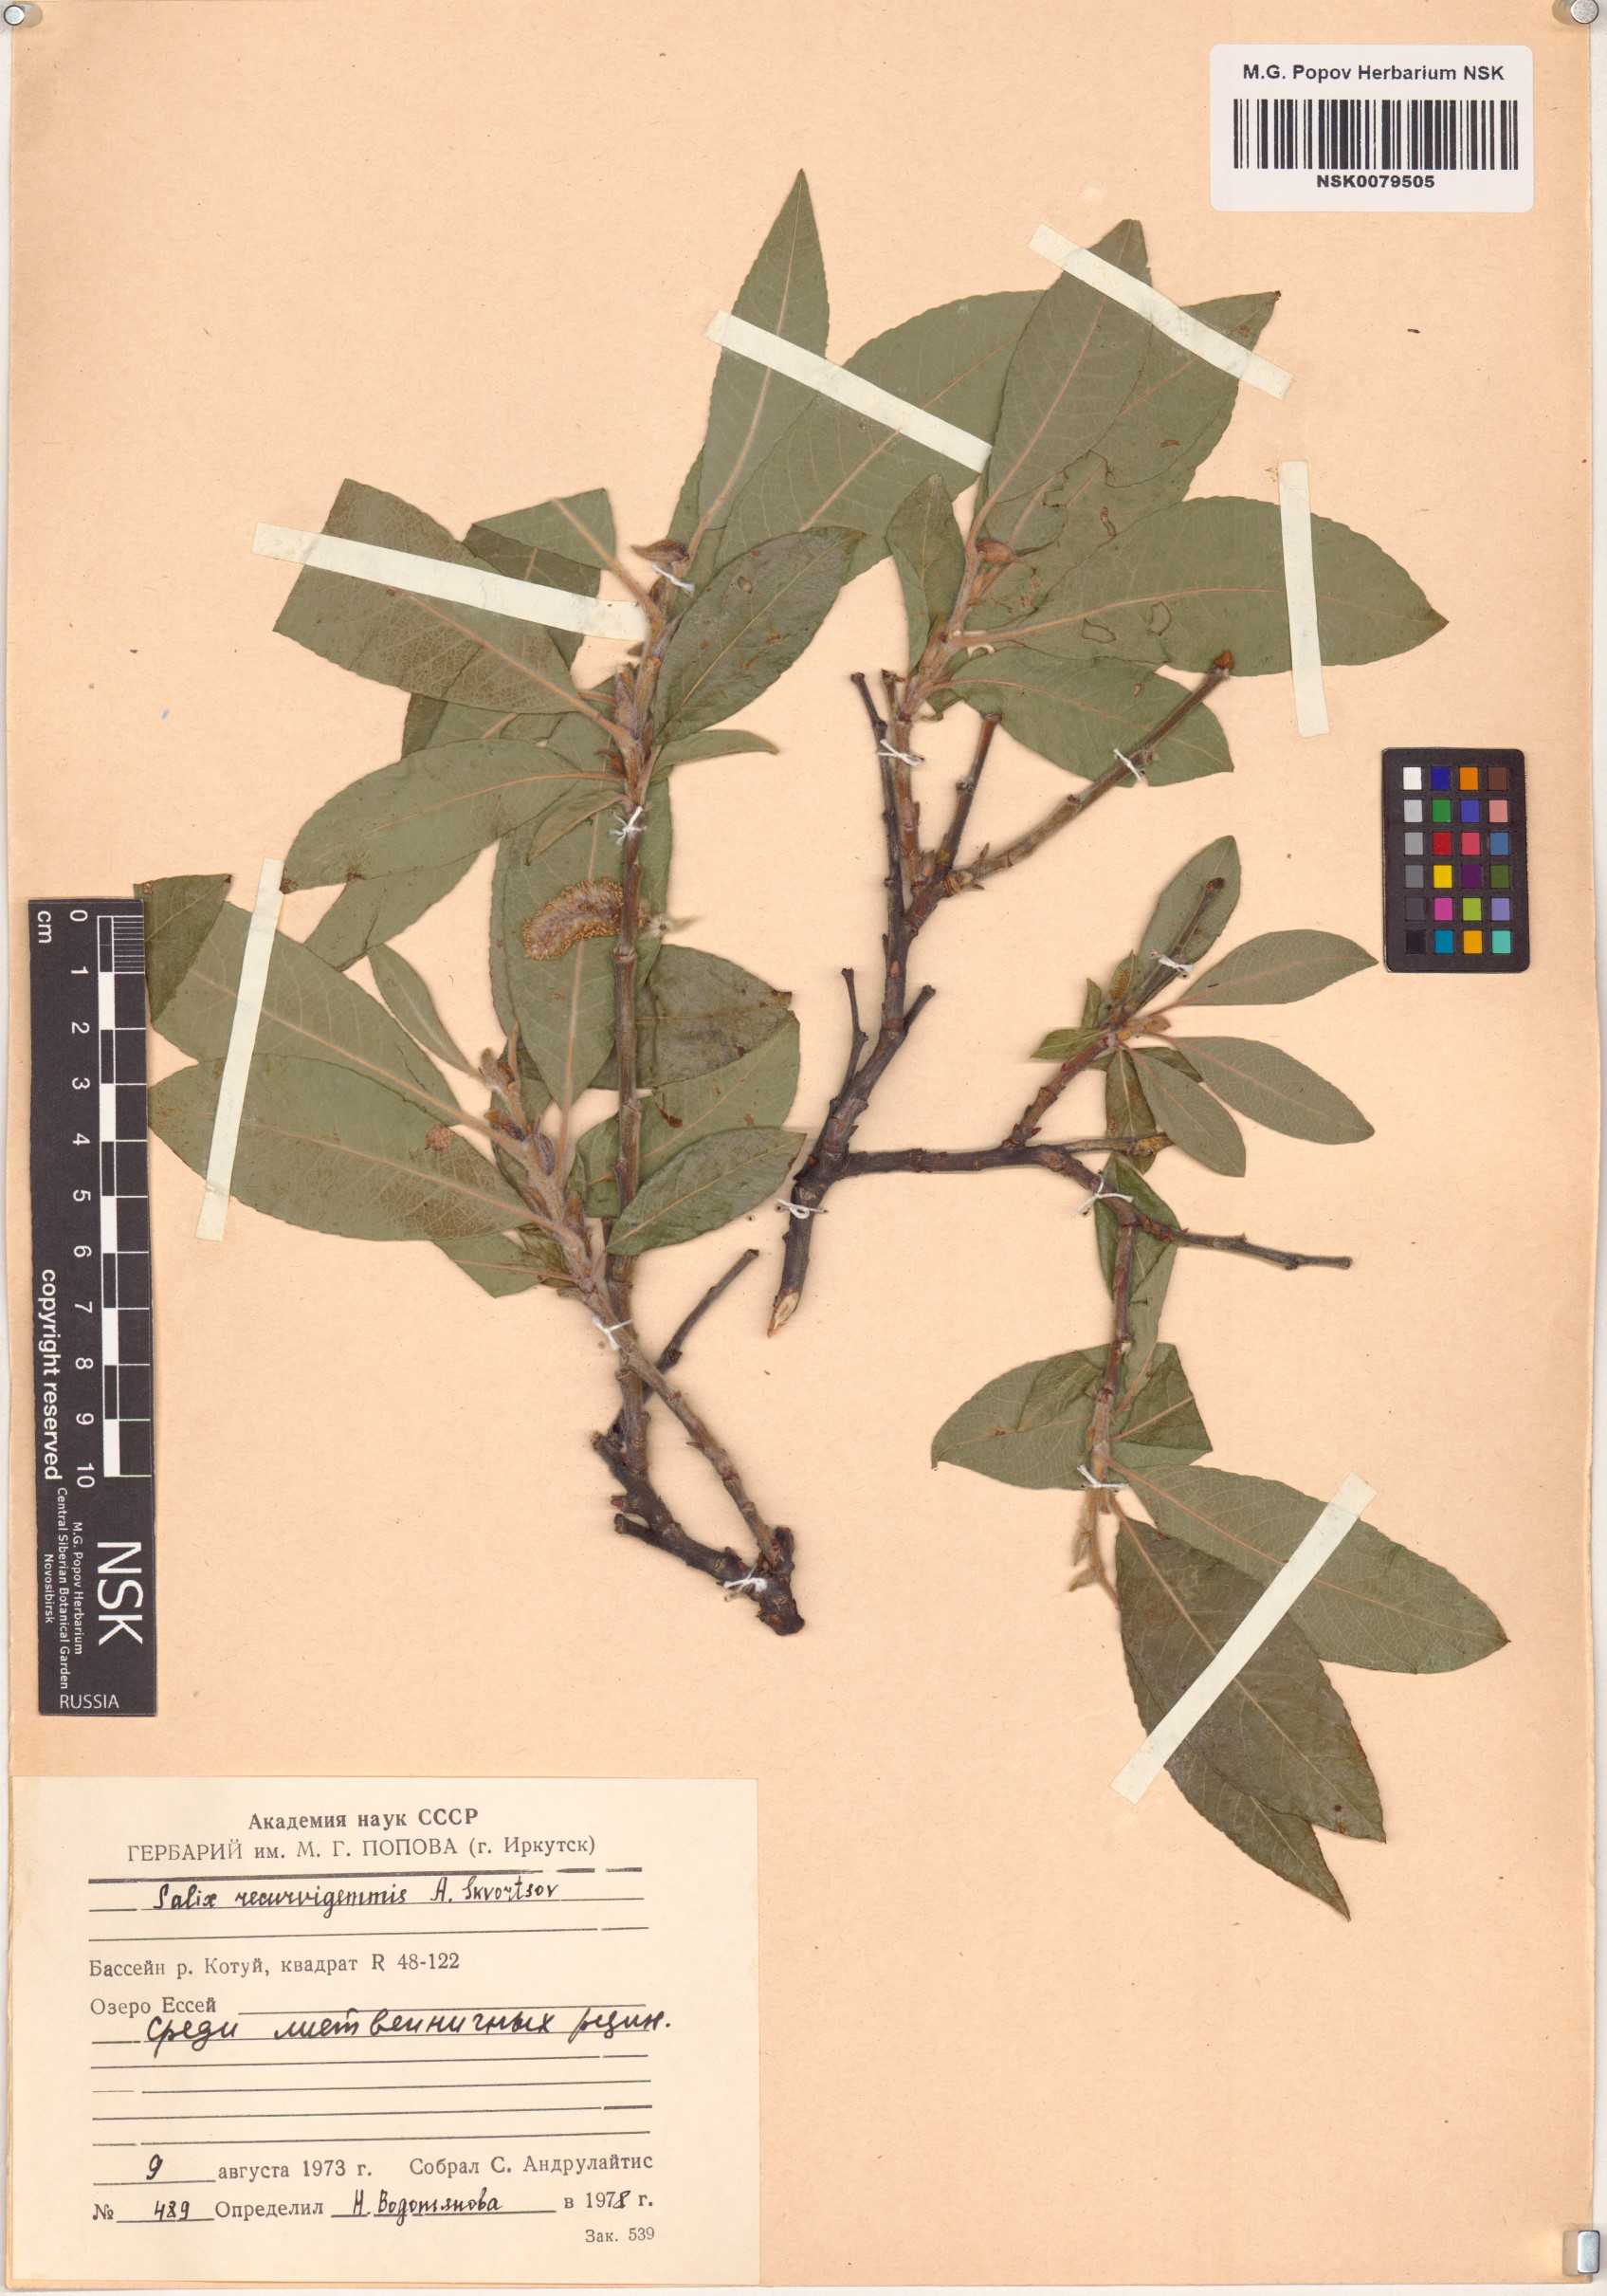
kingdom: Plantae
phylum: Tracheophyta
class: Magnoliopsida
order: Malpighiales
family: Salicaceae
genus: Salix
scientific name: Salix recurvigemmata
